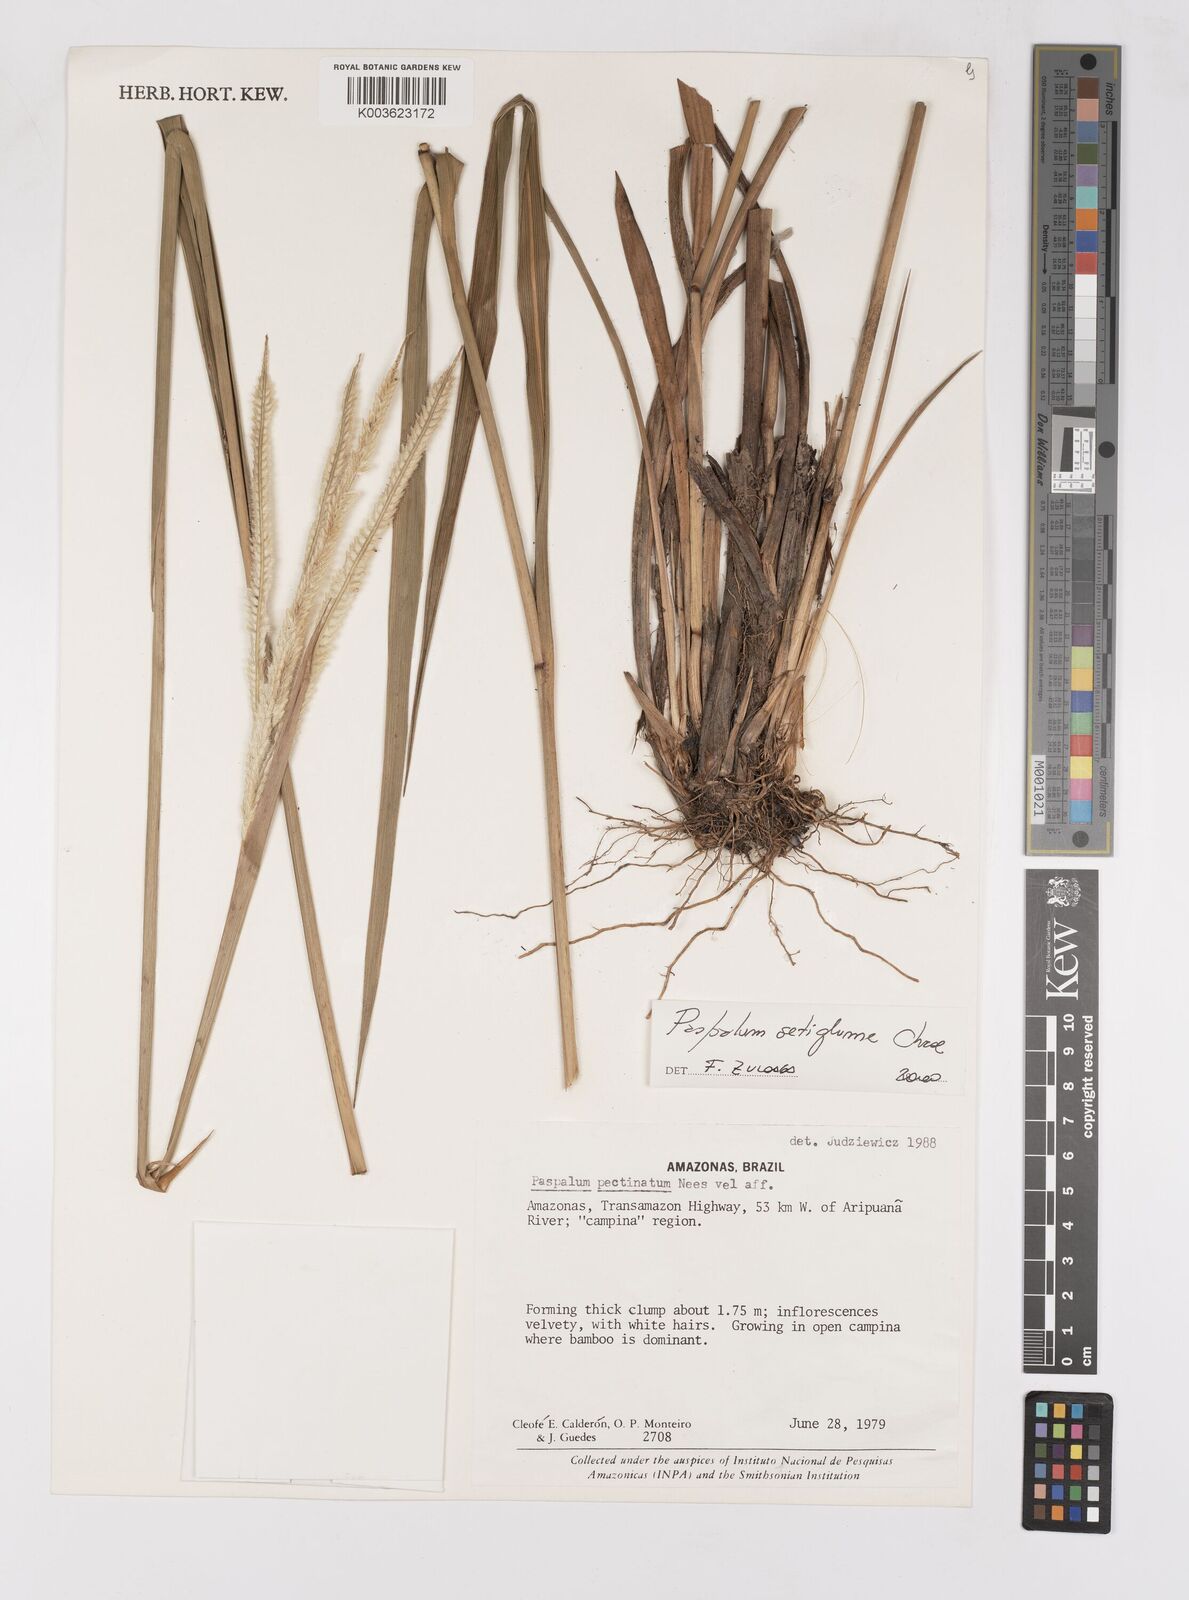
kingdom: Plantae
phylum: Tracheophyta
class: Liliopsida
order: Poales
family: Poaceae
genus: Paspalum
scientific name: Paspalum cordatum
